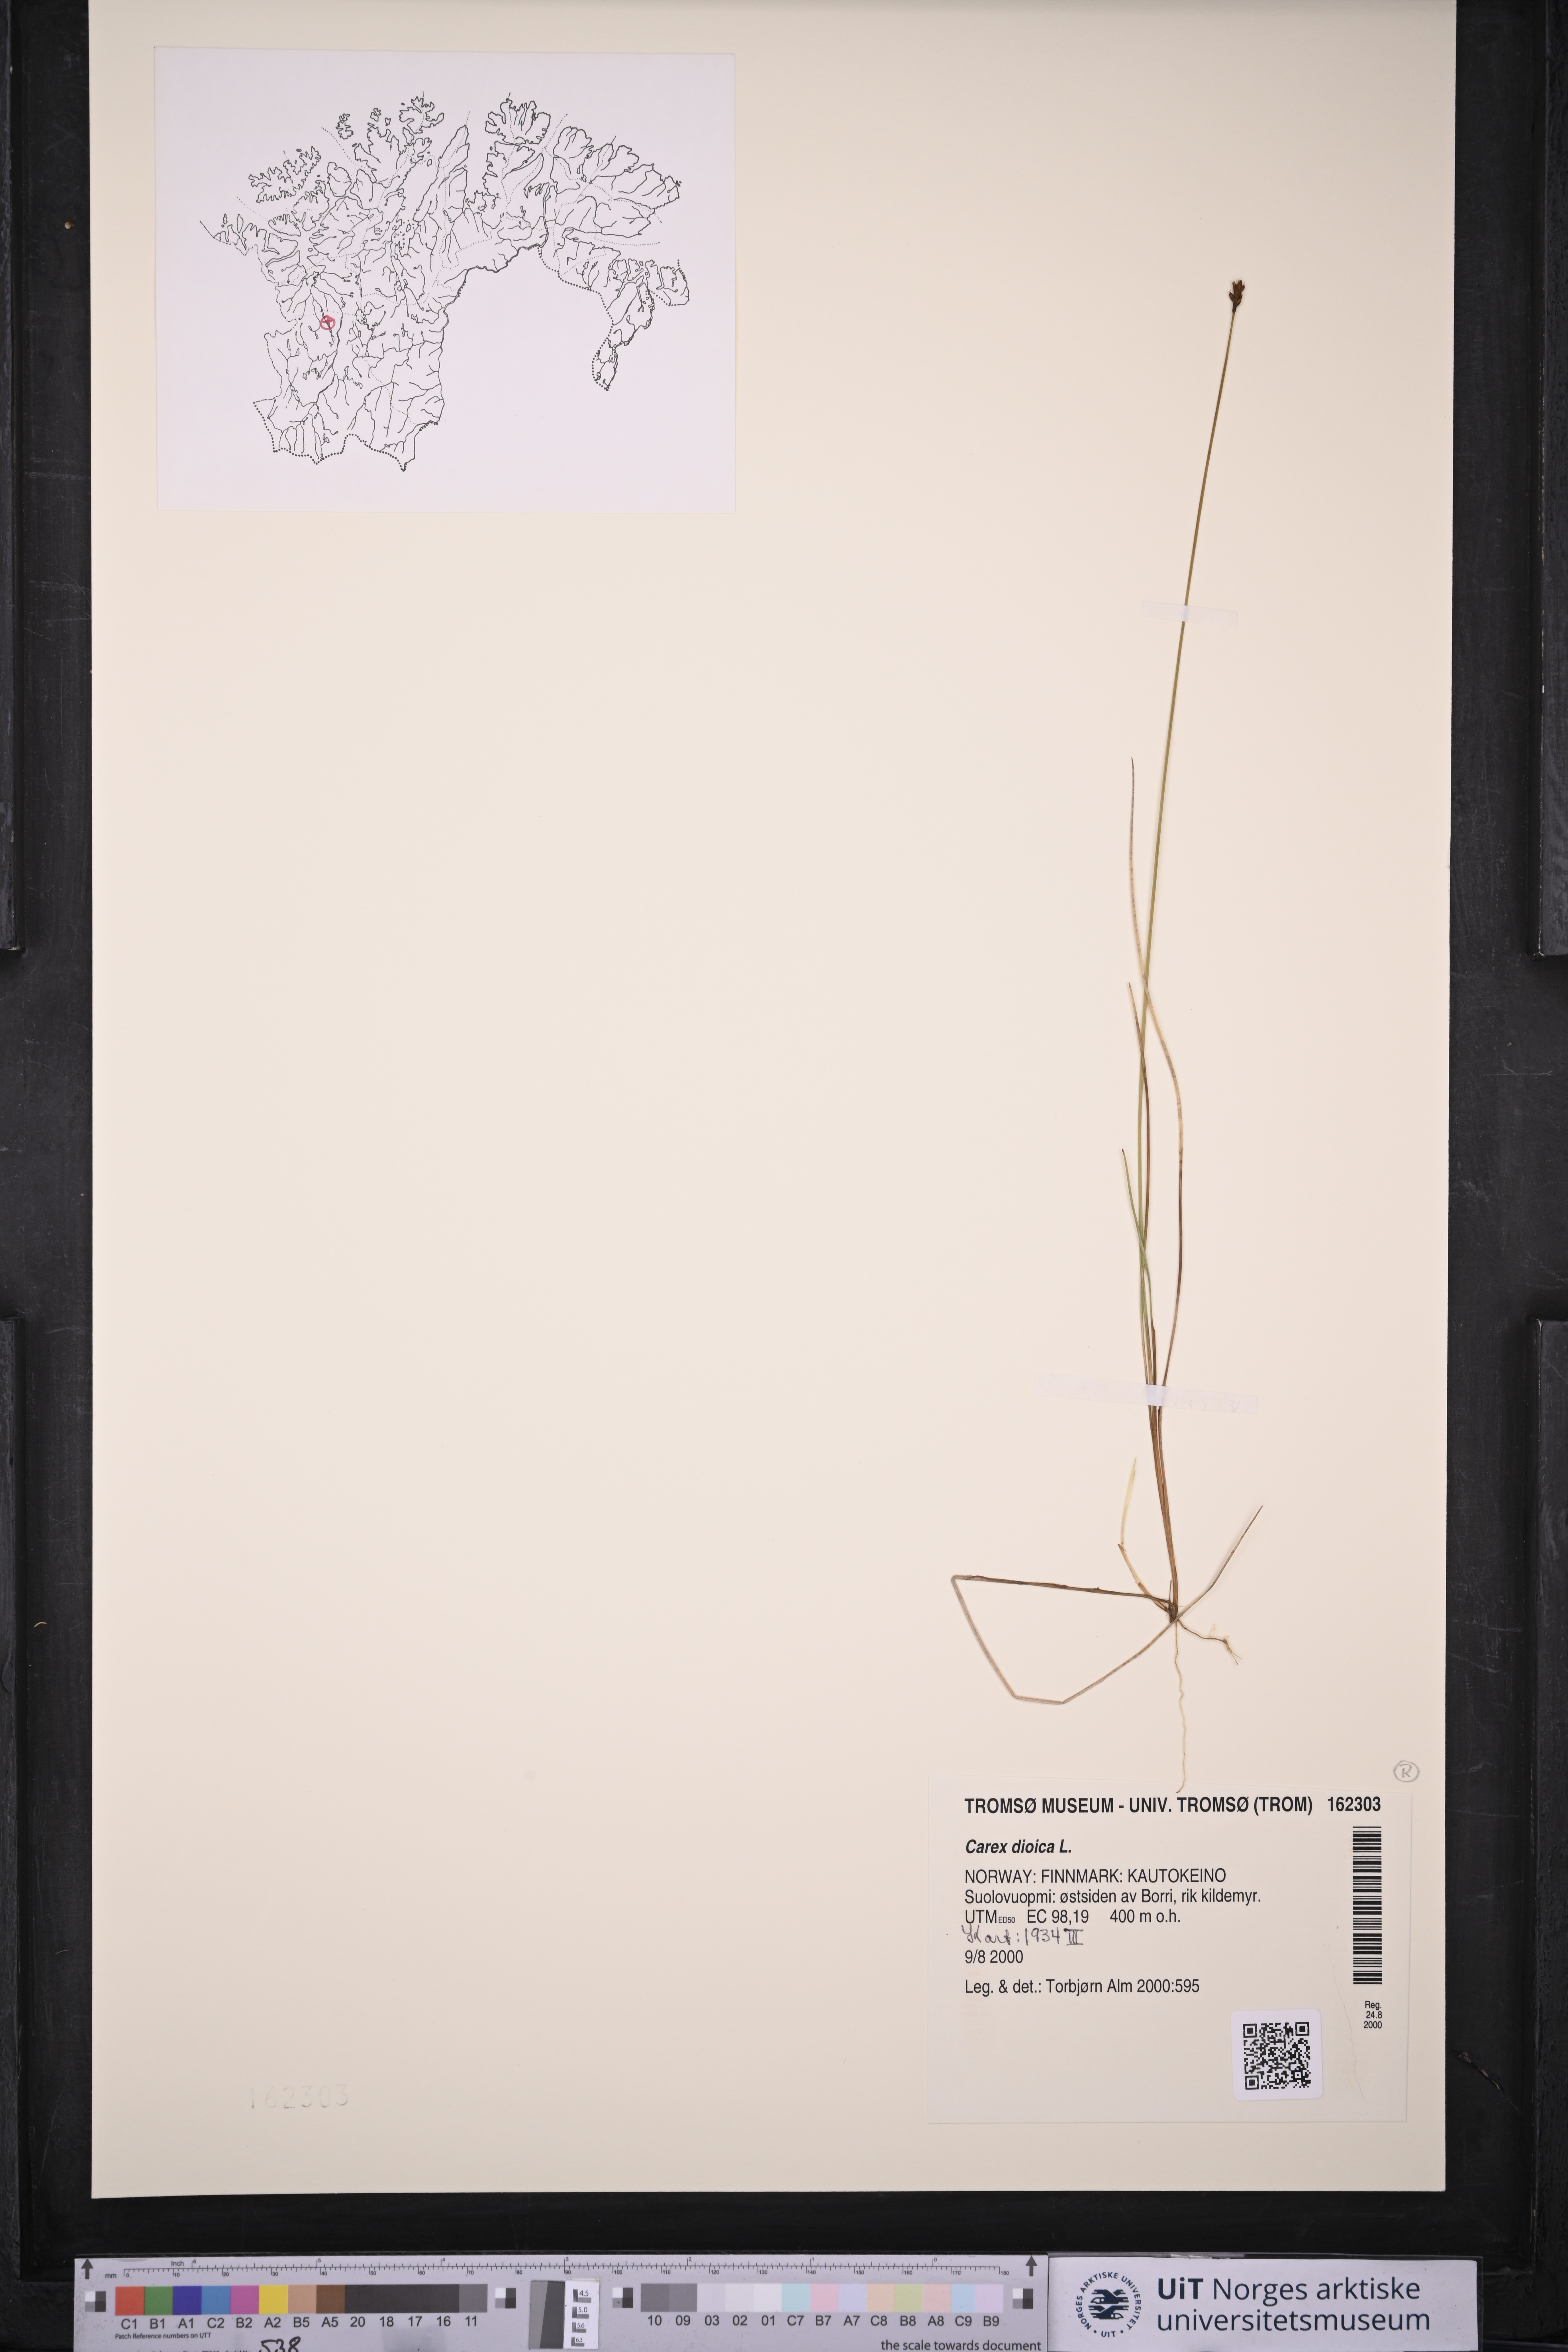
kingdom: Plantae
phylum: Tracheophyta
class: Liliopsida
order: Poales
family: Cyperaceae
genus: Carex
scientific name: Carex dioica
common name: Dioecious sedge
